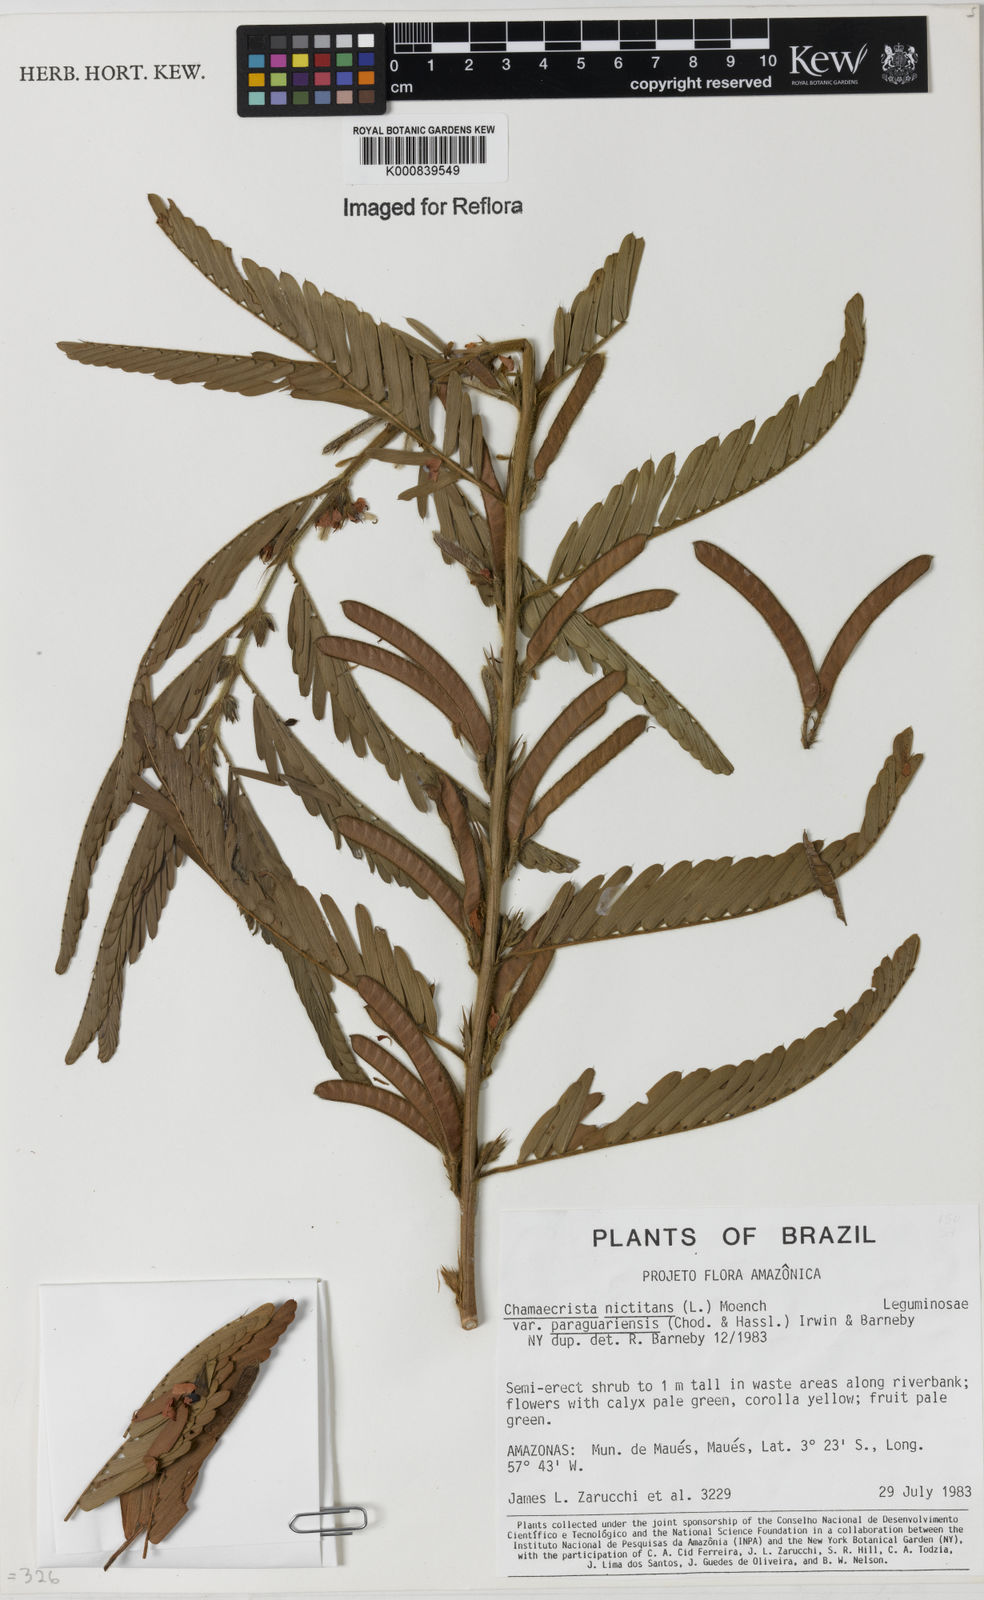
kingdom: Plantae
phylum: Tracheophyta
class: Magnoliopsida
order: Fabales
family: Fabaceae
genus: Chamaecrista
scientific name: Chamaecrista nictitans
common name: Sensitive cassia
